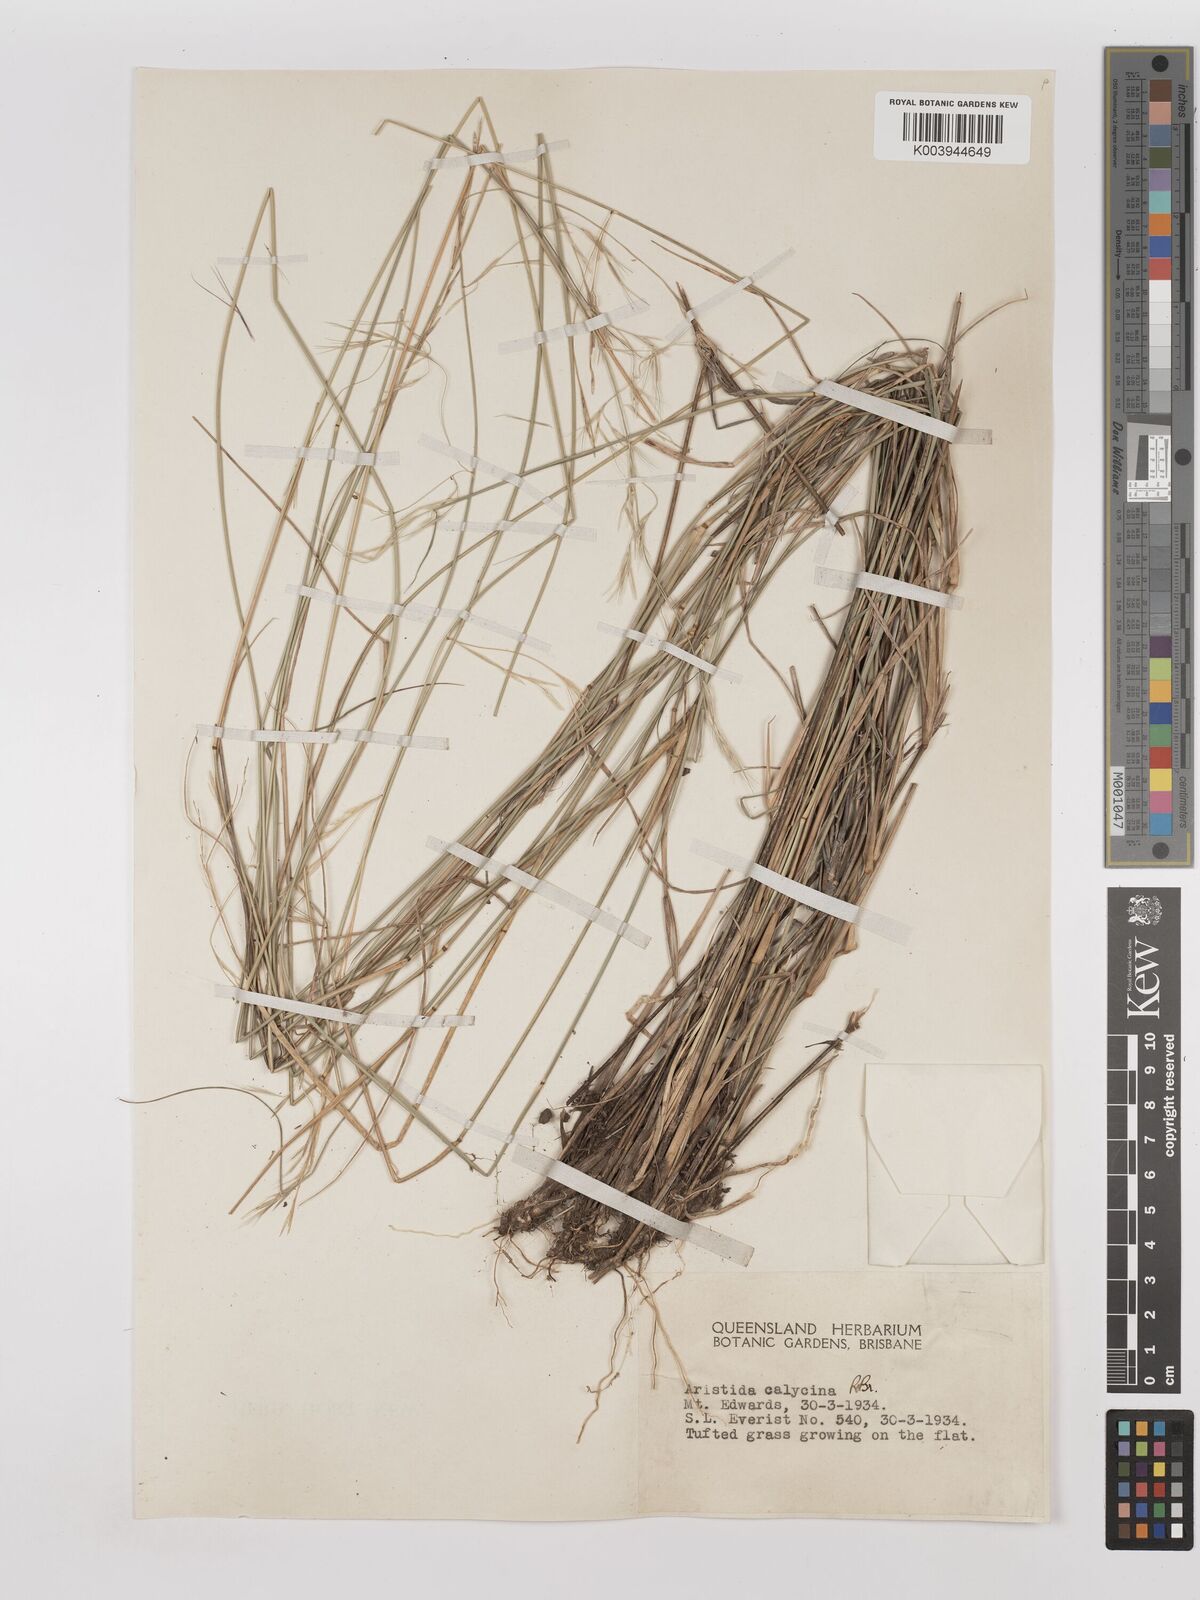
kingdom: Plantae
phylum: Tracheophyta
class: Liliopsida
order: Poales
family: Poaceae
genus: Aristida
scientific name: Aristida calycina
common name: Dark wire grass
